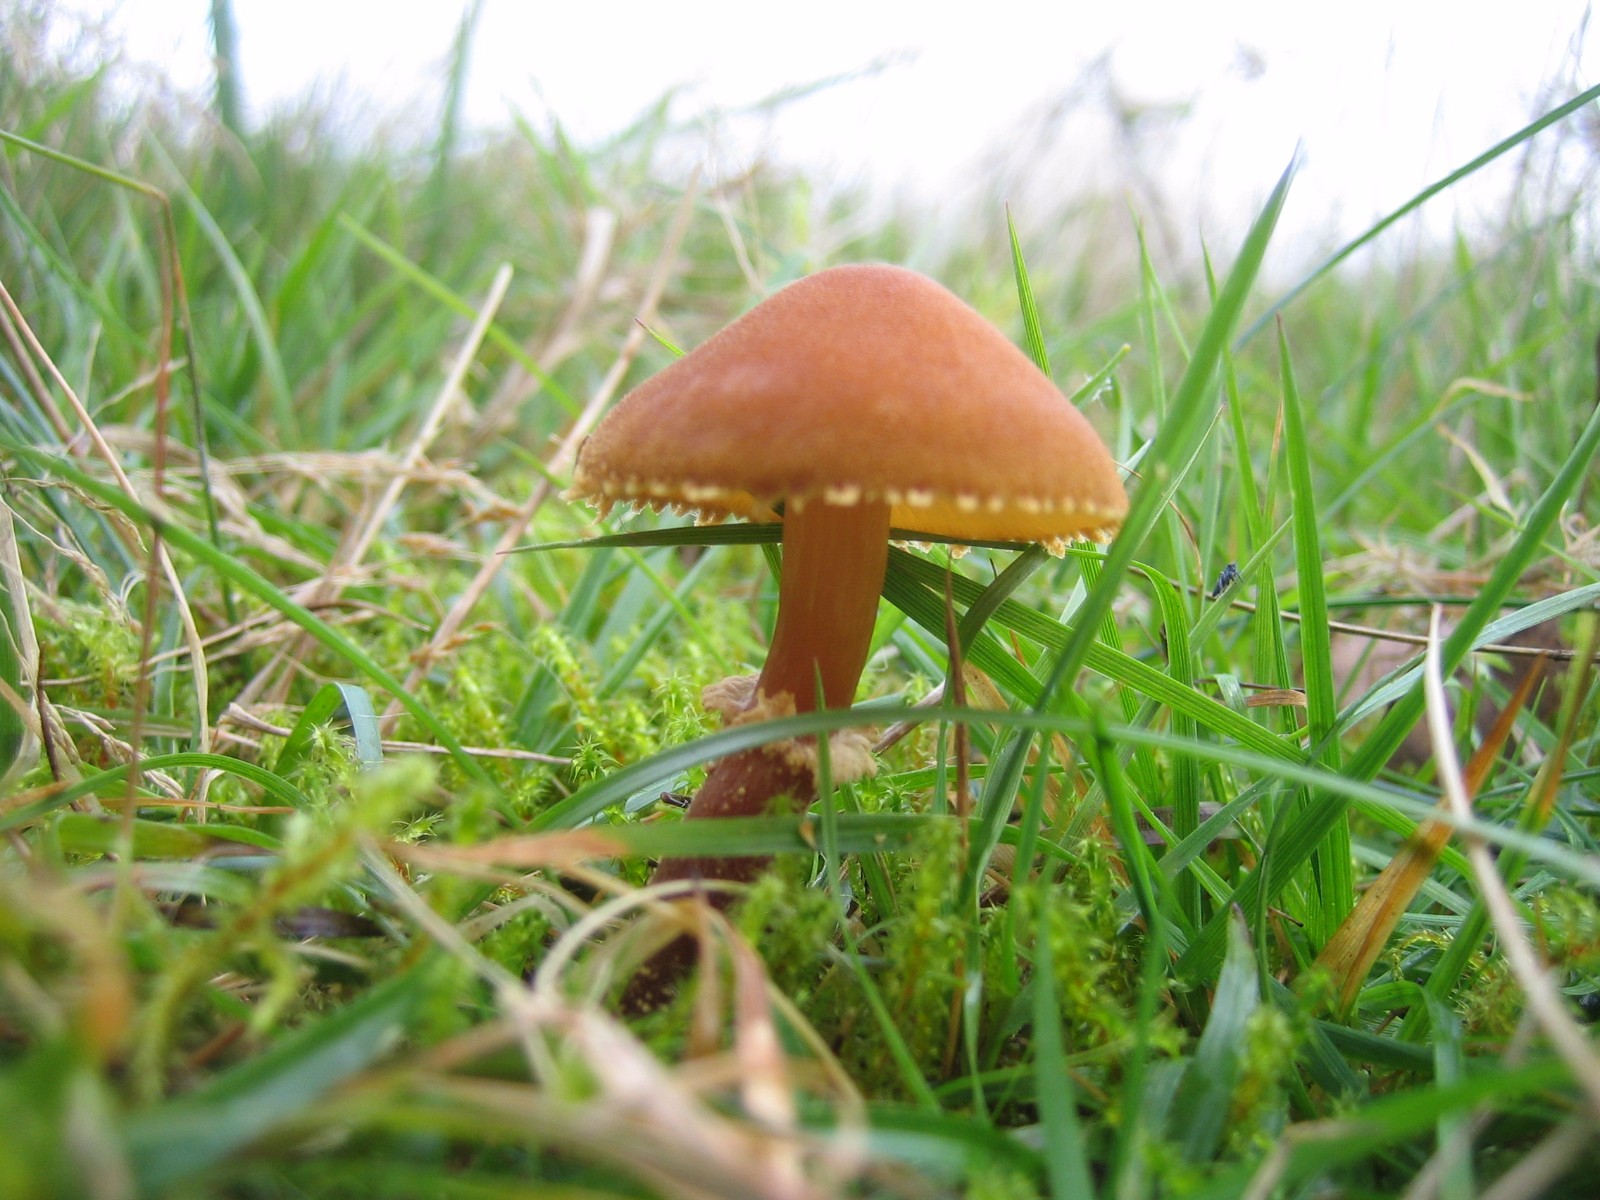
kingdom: Fungi
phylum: Basidiomycota
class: Agaricomycetes
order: Agaricales
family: Tricholomataceae
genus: Cystoderma
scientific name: Cystoderma amianthinum
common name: okkergul grynhat
